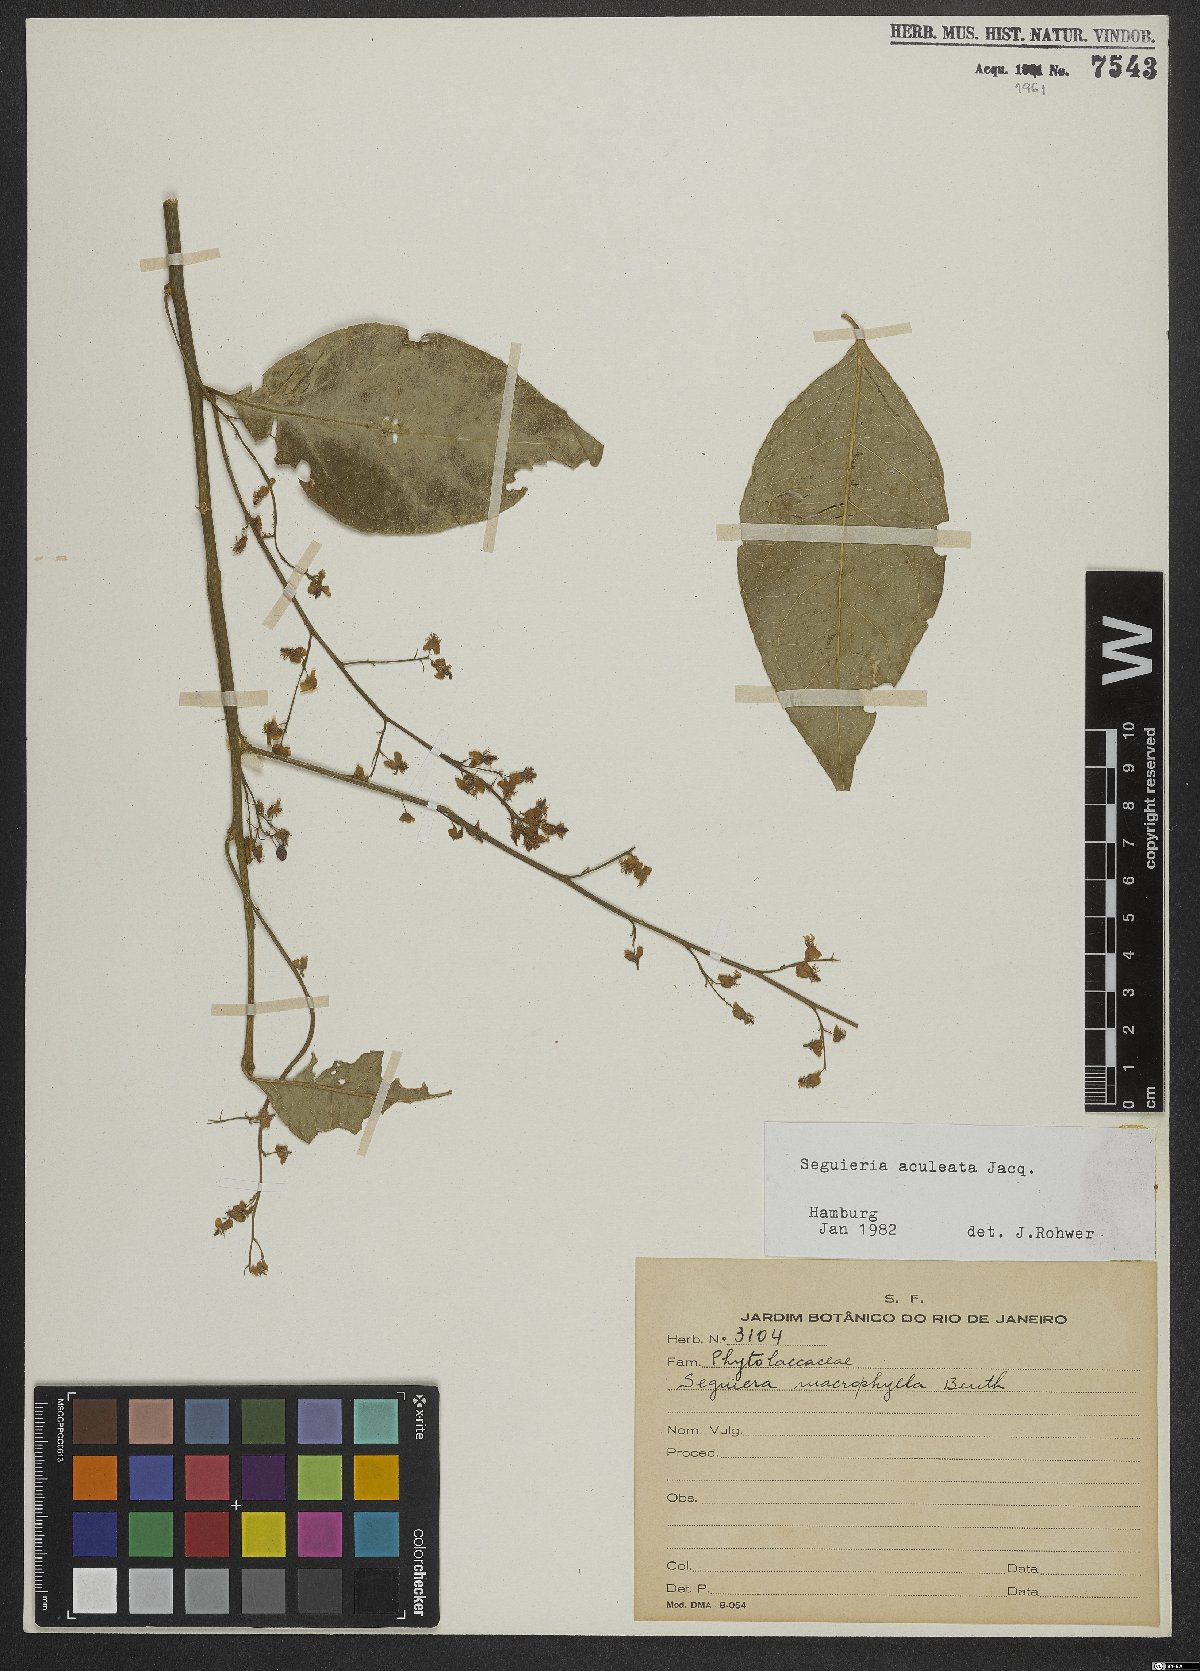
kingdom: Plantae
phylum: Tracheophyta
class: Magnoliopsida
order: Caryophyllales
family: Phytolaccaceae
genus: Seguieria
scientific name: Seguieria aculeata
